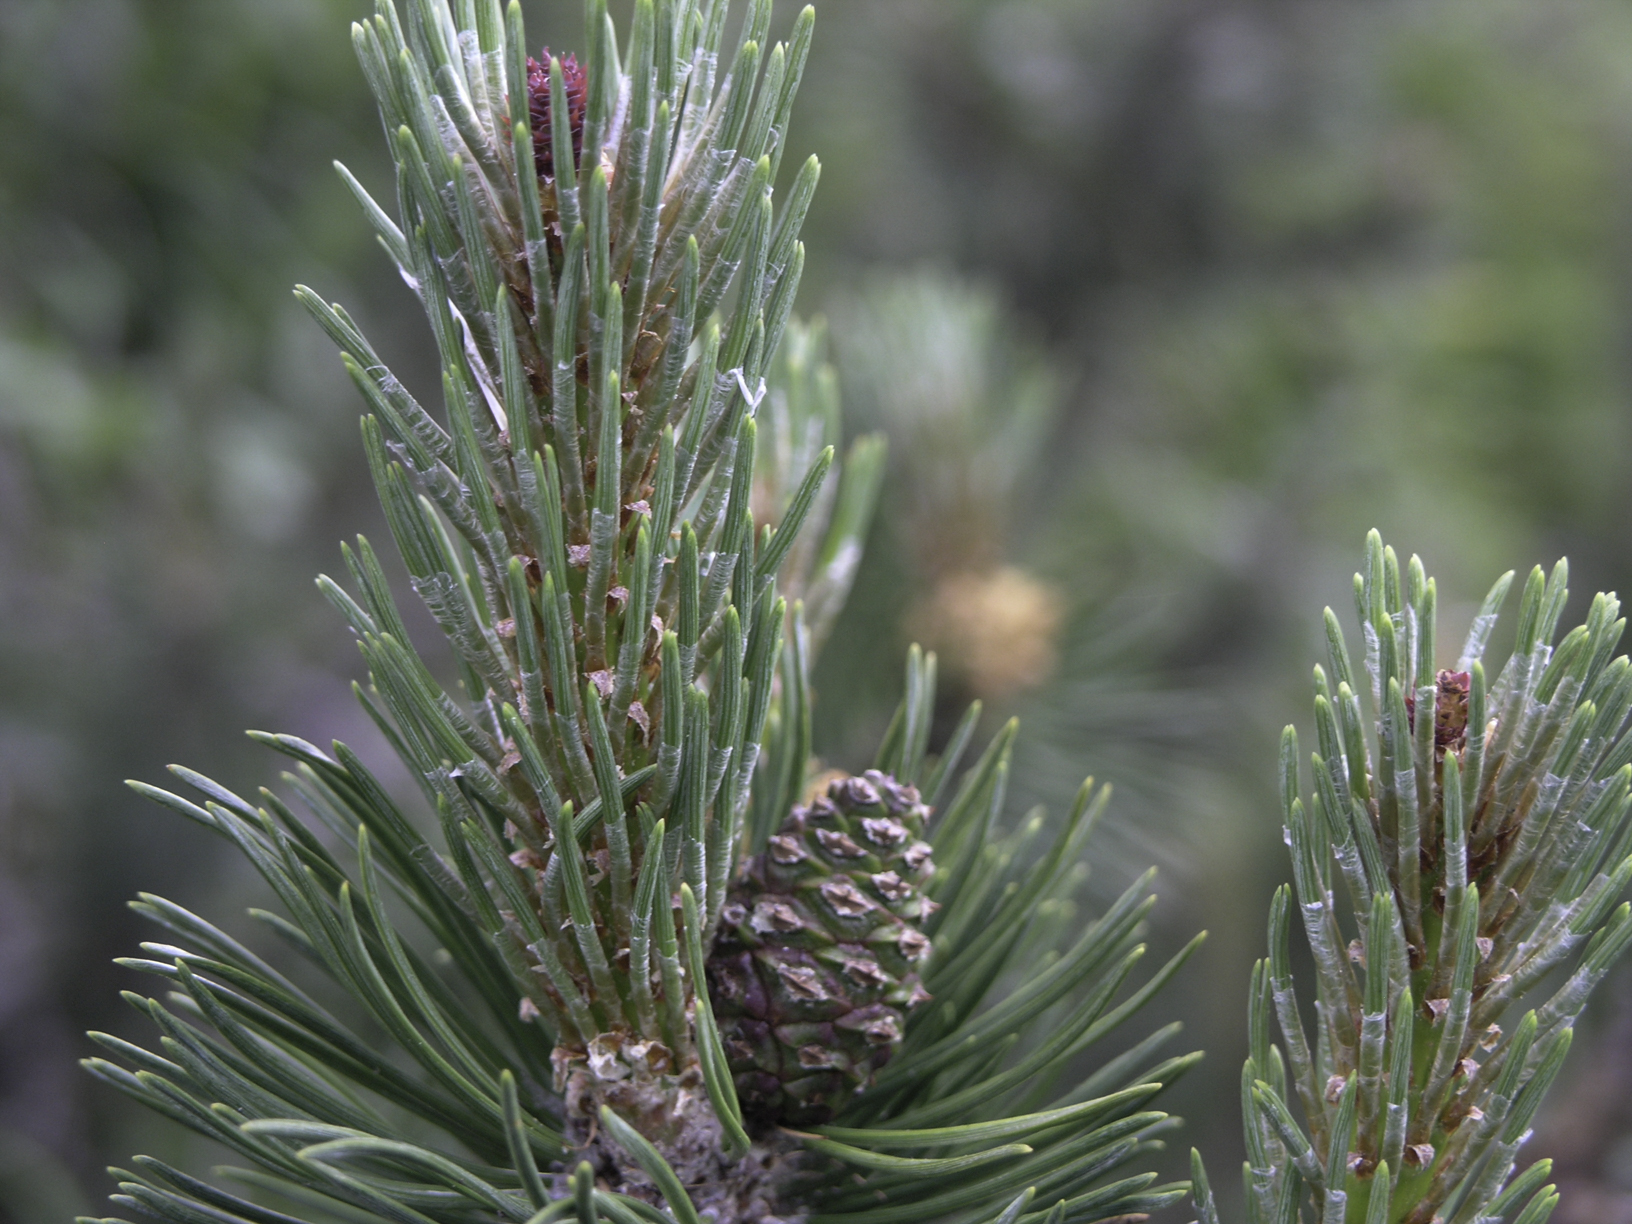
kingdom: Plantae
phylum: Tracheophyta
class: Pinopsida
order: Pinales
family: Pinaceae
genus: Pinus
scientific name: Pinus mugo
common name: Mugo pine
